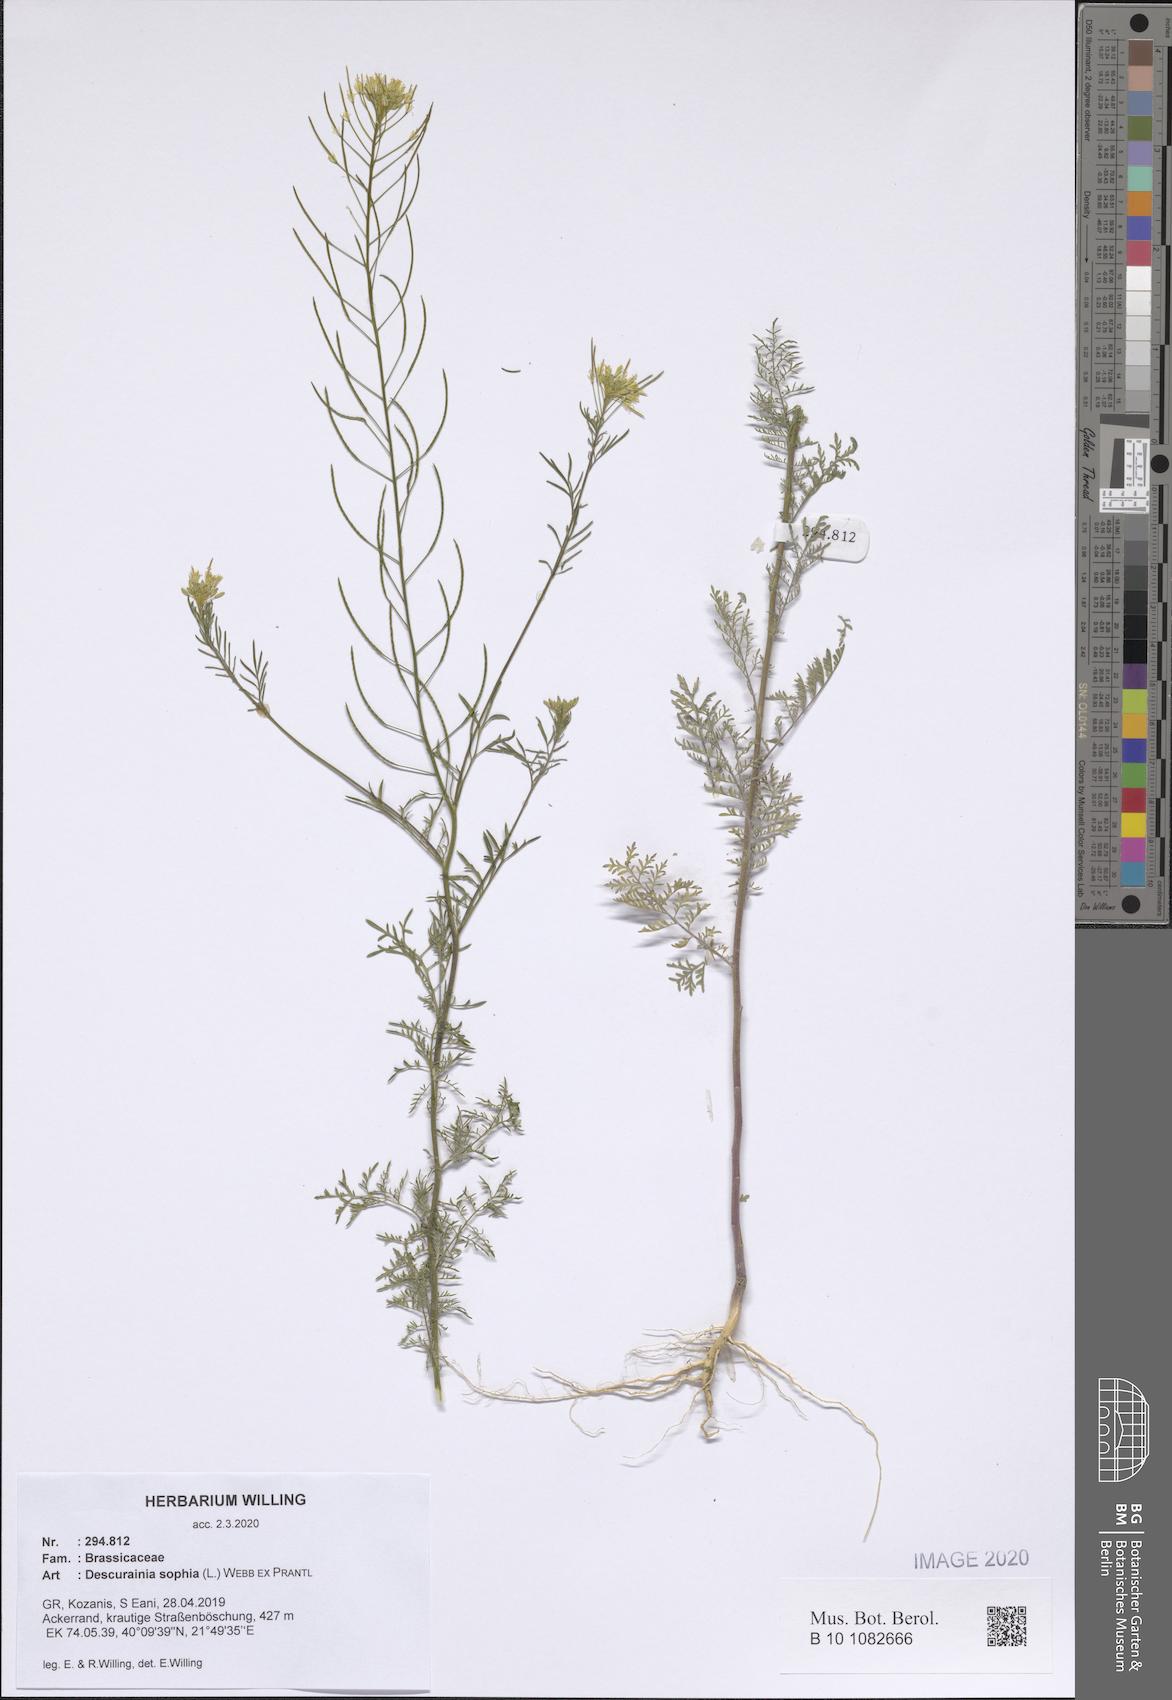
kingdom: Plantae
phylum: Tracheophyta
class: Magnoliopsida
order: Brassicales
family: Brassicaceae
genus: Descurainia
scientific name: Descurainia sophia
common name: Flixweed
